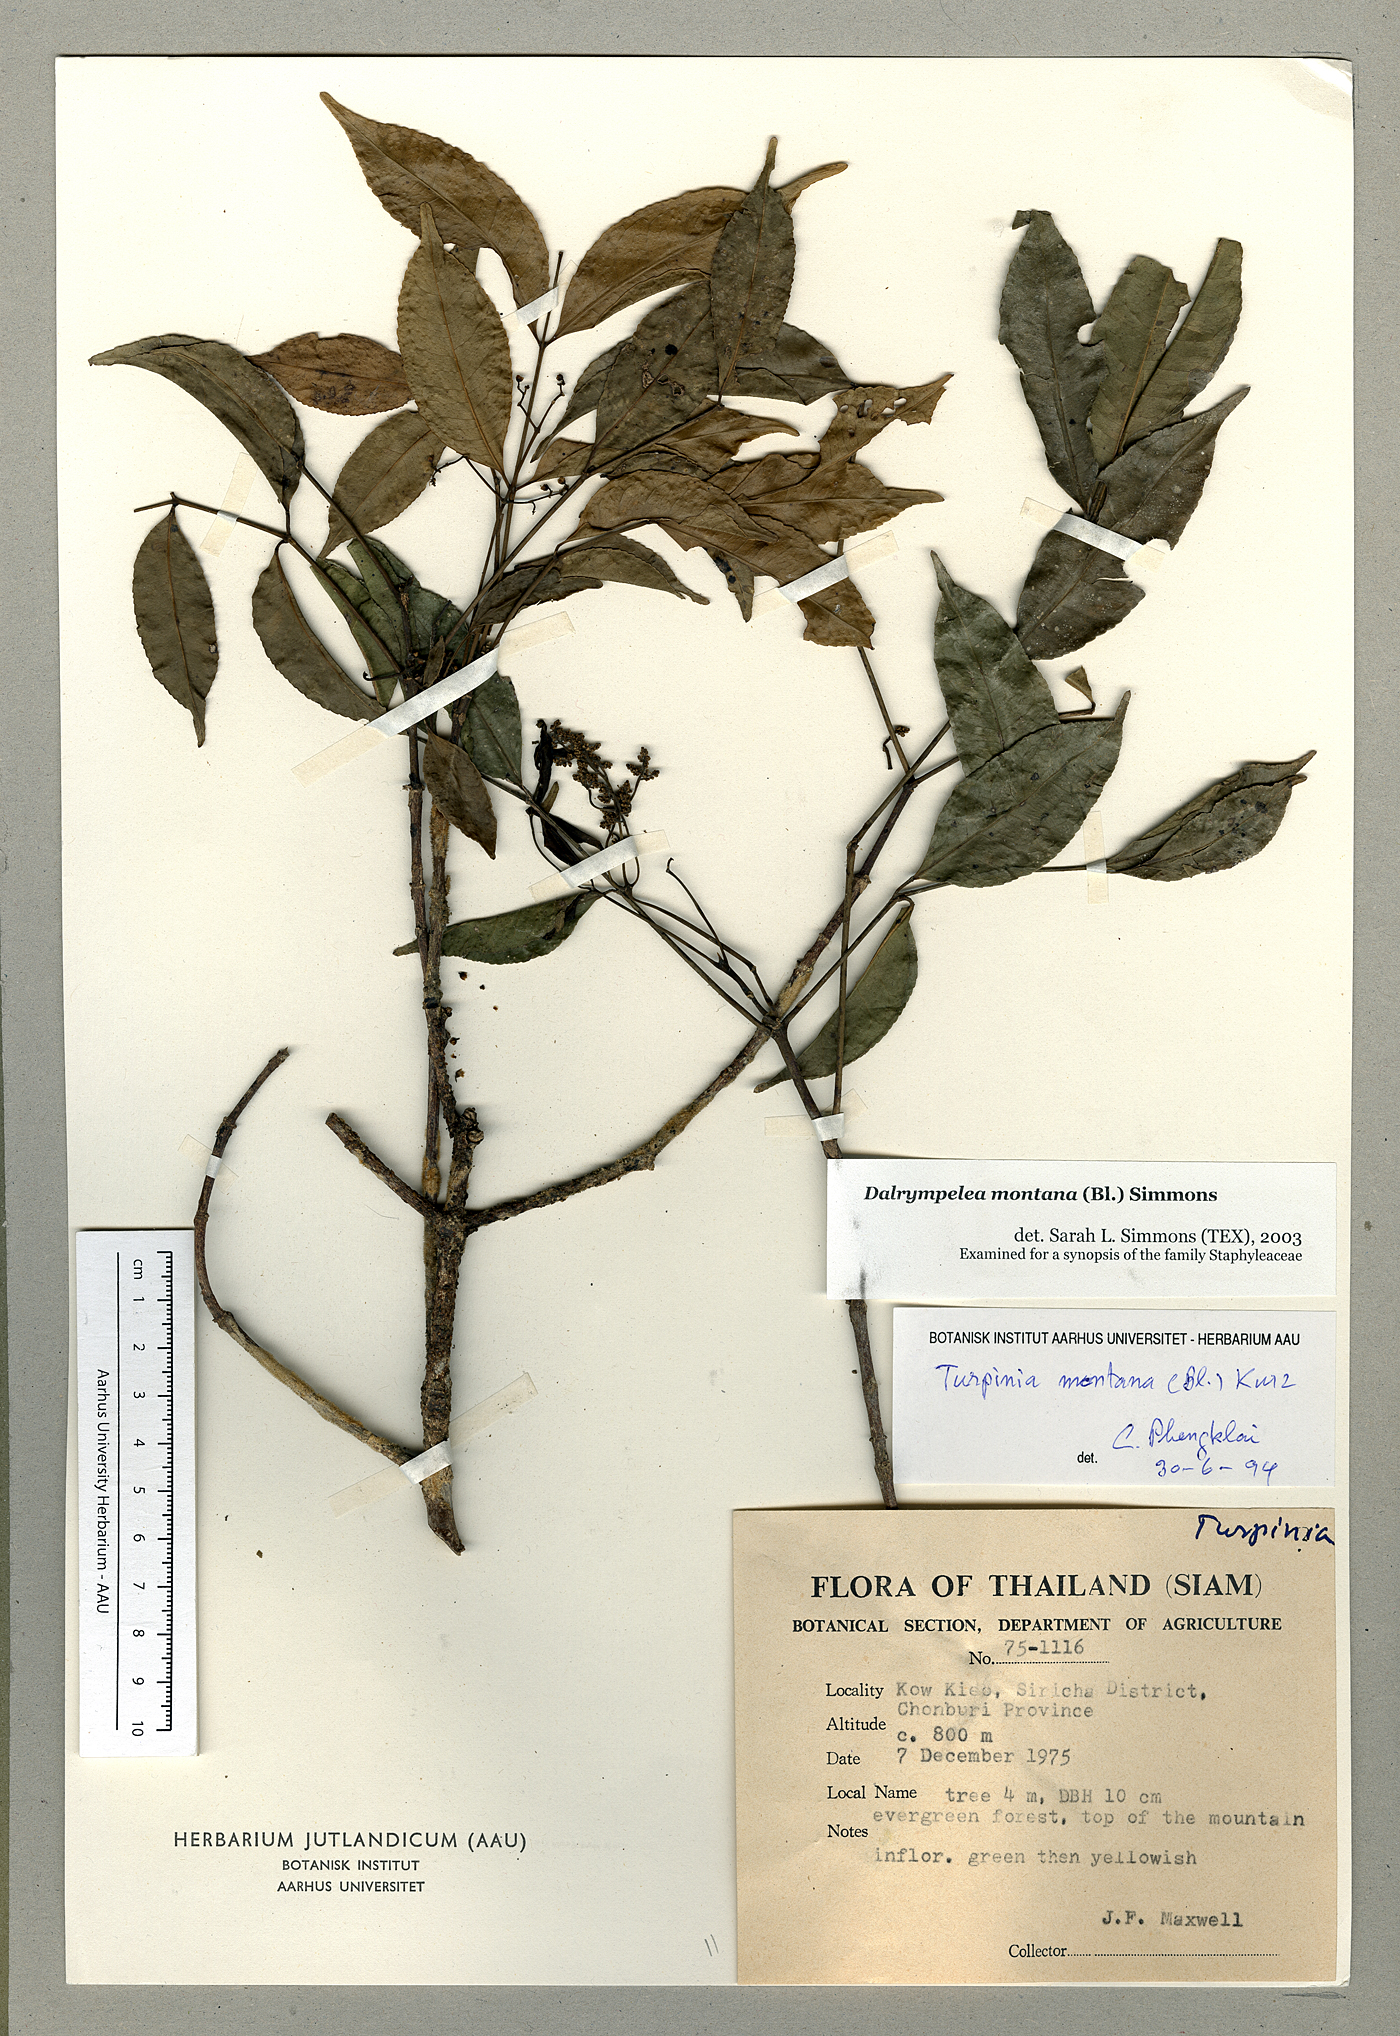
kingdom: Plantae
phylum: Tracheophyta
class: Magnoliopsida
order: Crossosomatales
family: Staphyleaceae
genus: Turpinia
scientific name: Turpinia cochinchinensis
